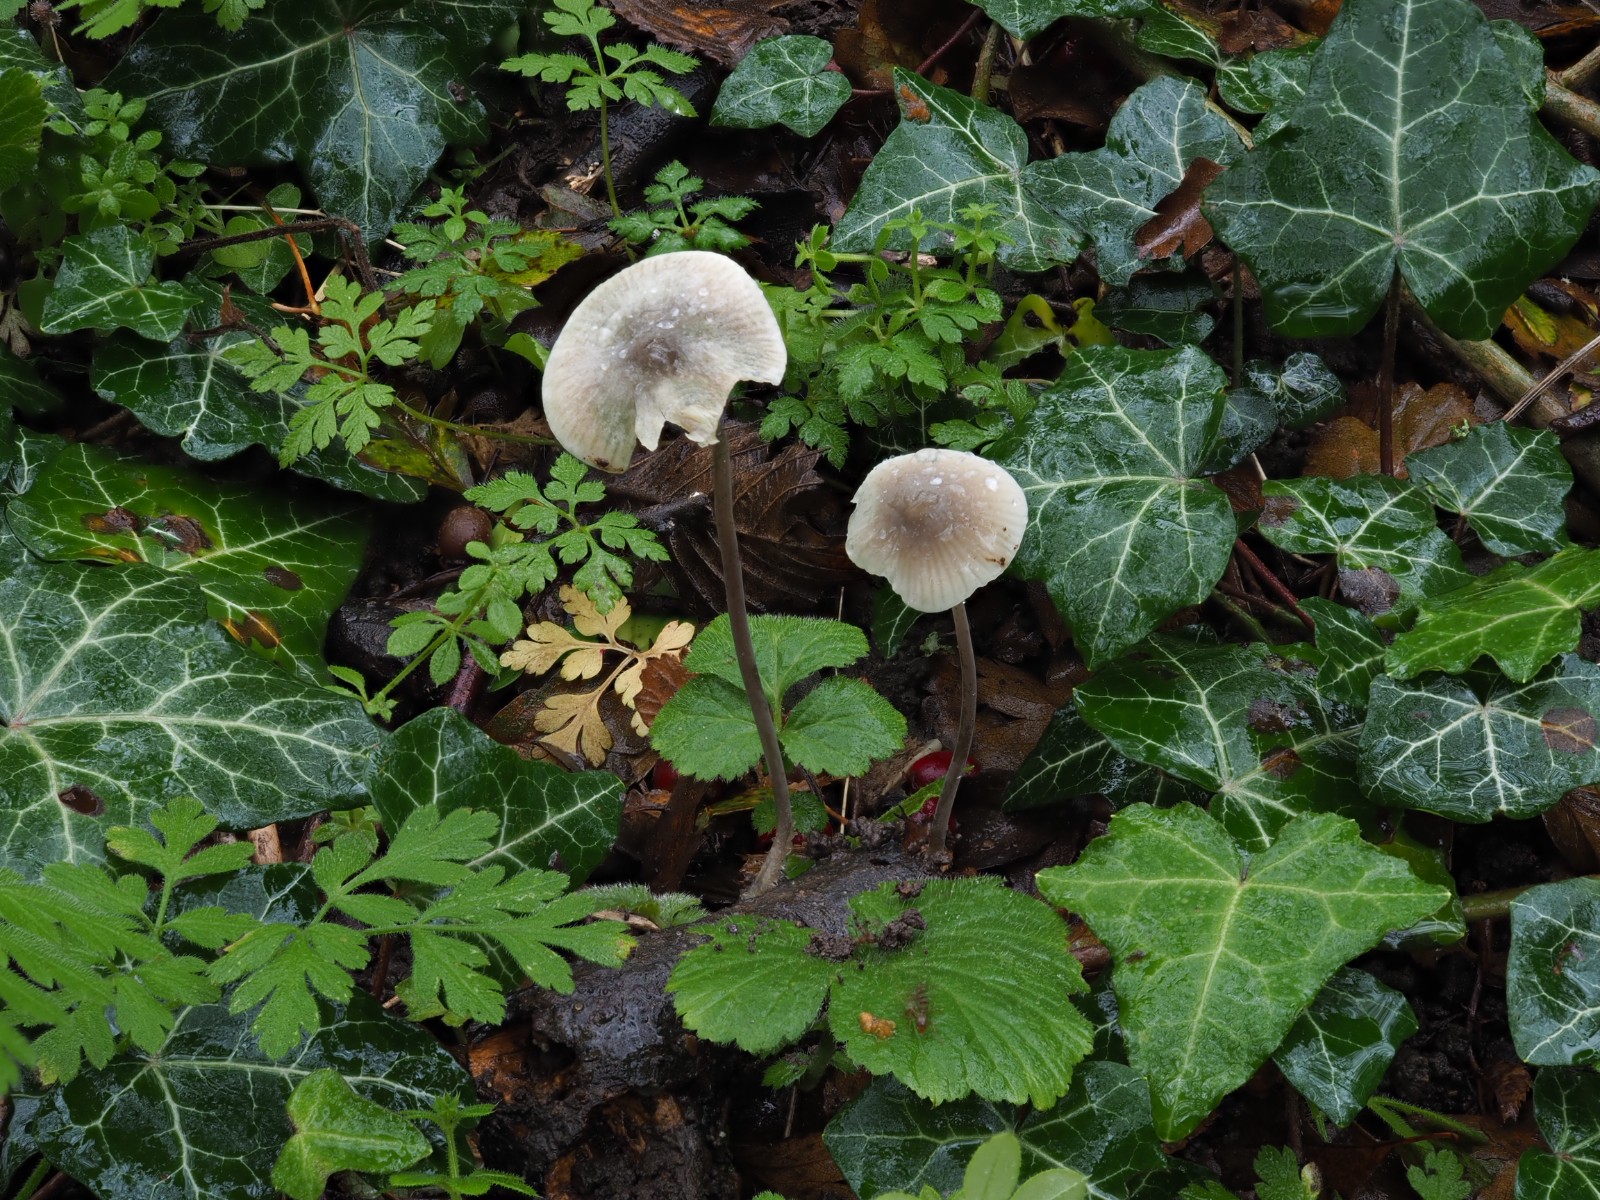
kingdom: Fungi
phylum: Basidiomycota
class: Agaricomycetes
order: Agaricales
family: Mycenaceae
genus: Mycena
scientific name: Mycena arcangeliana
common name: oliven-huesvamp
